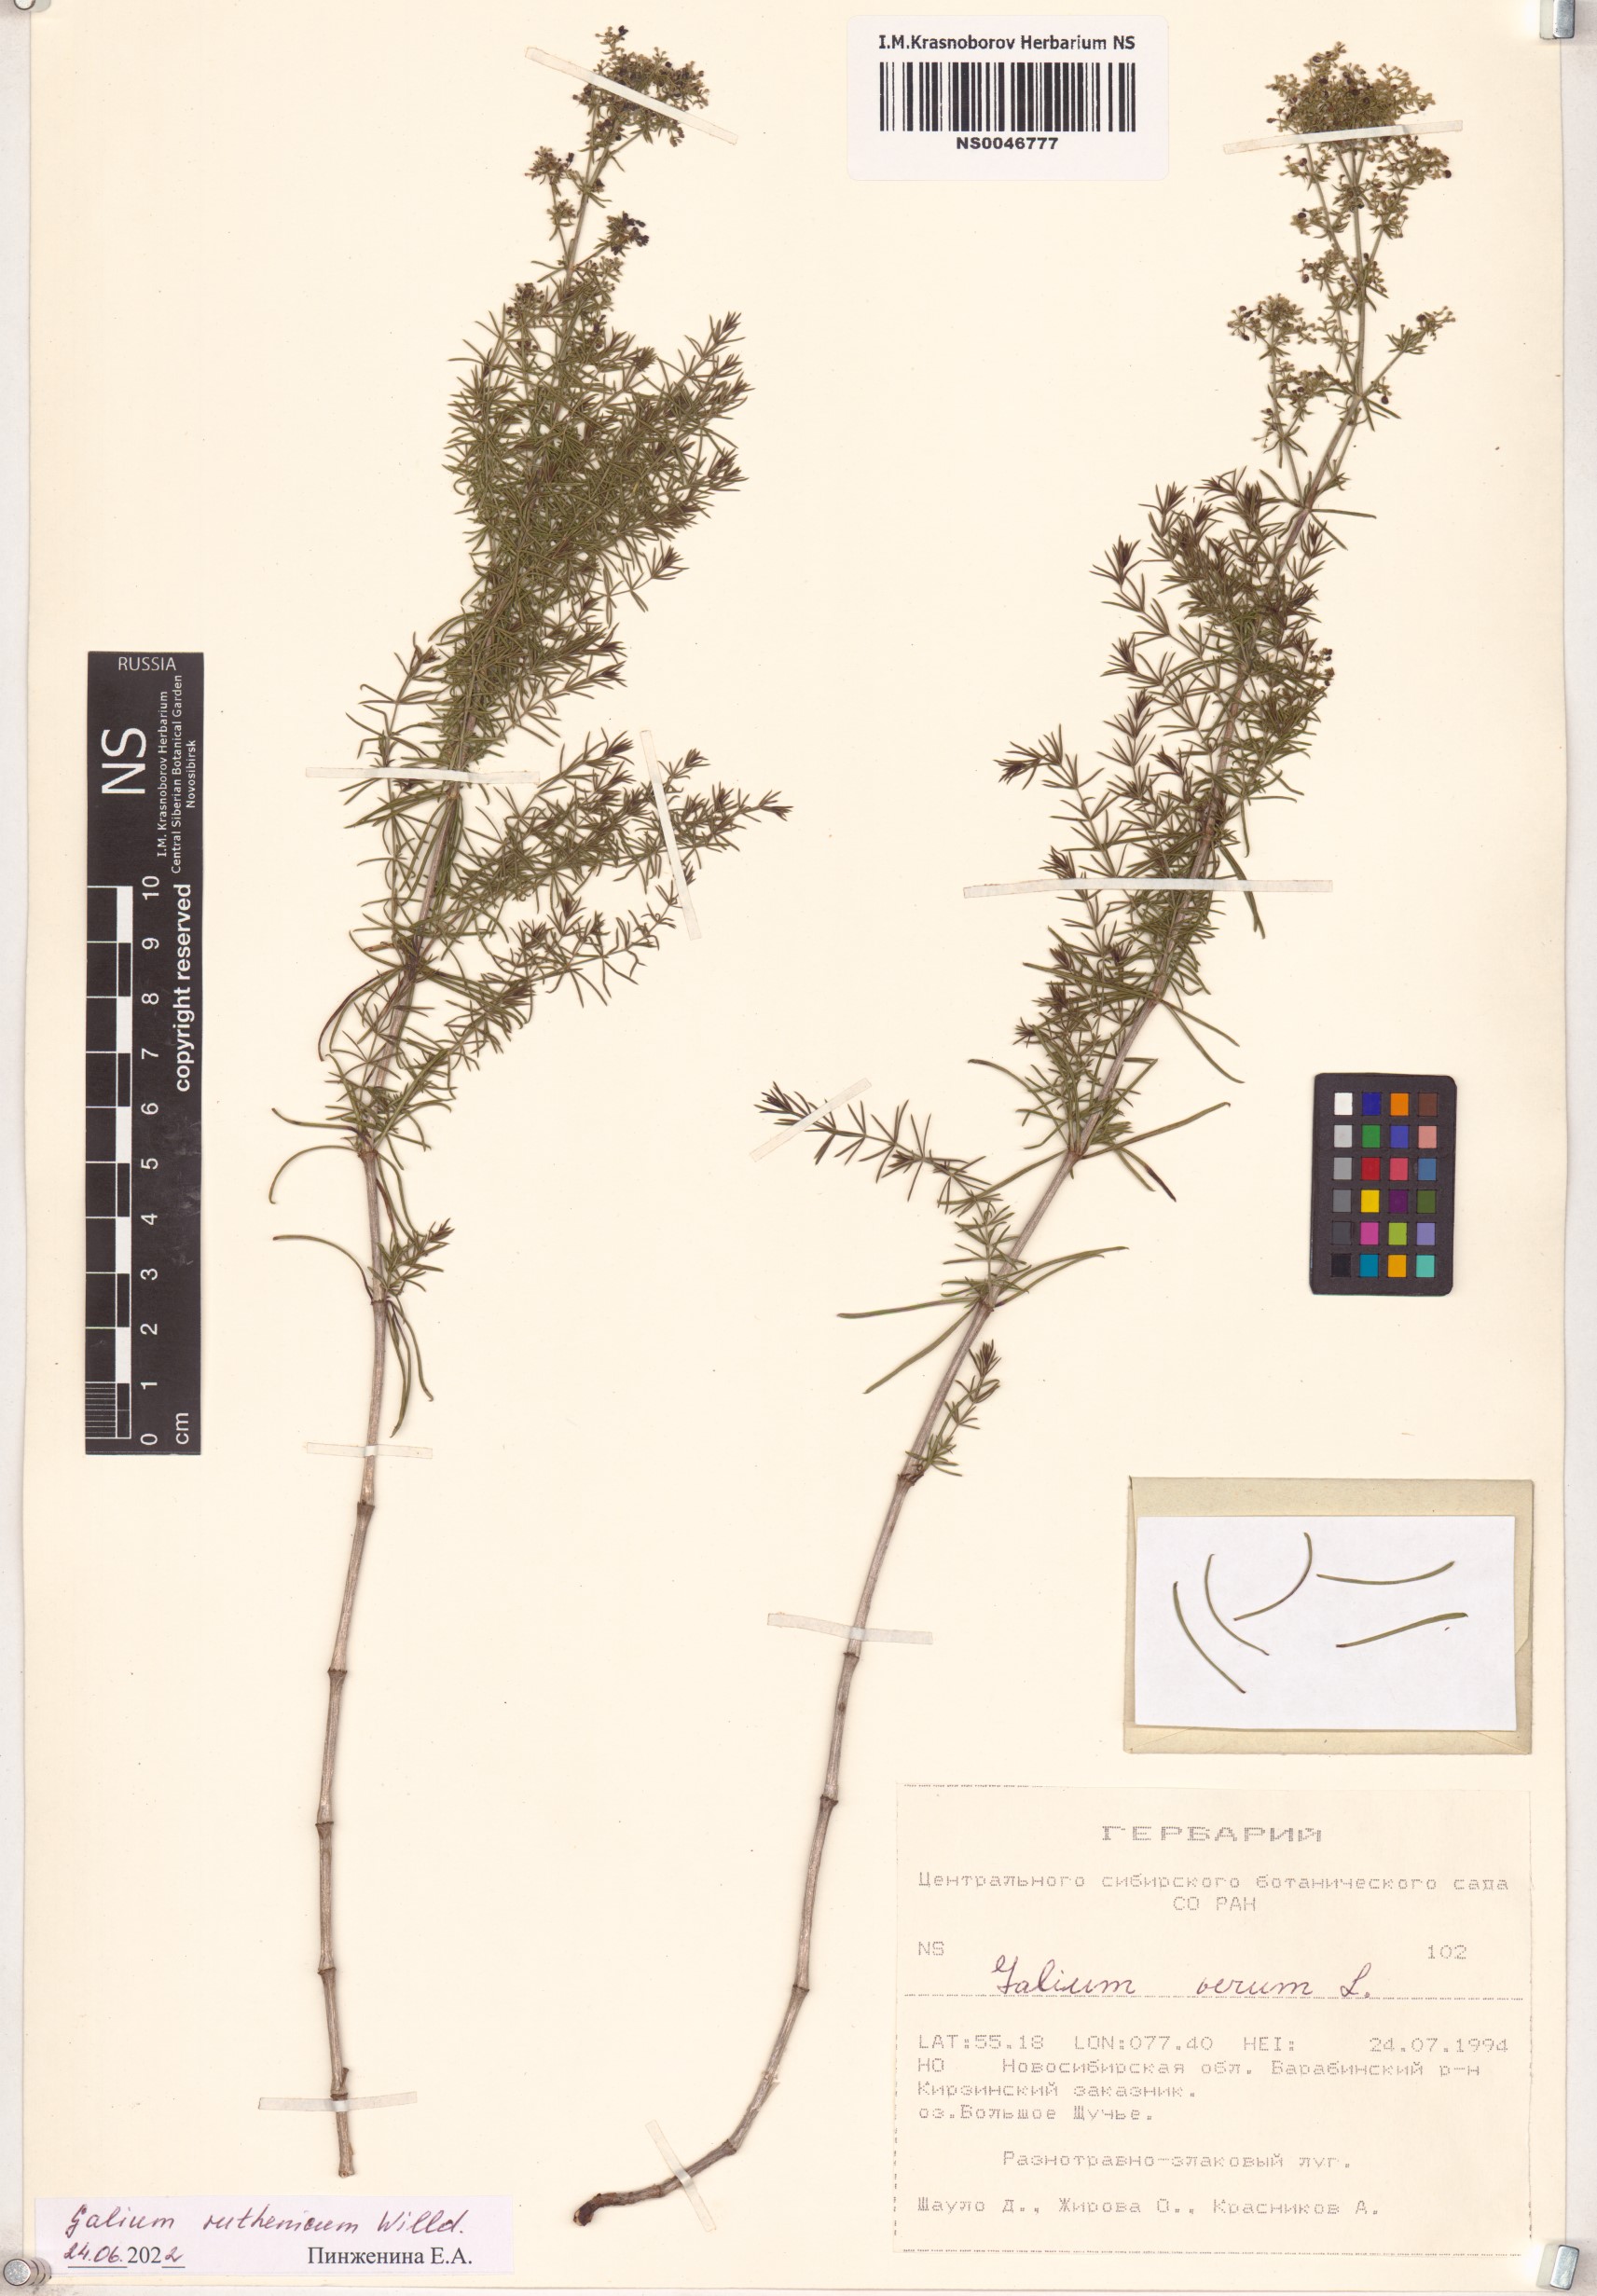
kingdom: Plantae
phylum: Tracheophyta
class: Magnoliopsida
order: Gentianales
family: Rubiaceae
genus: Galium
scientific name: Galium verum
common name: Lady's bedstraw
